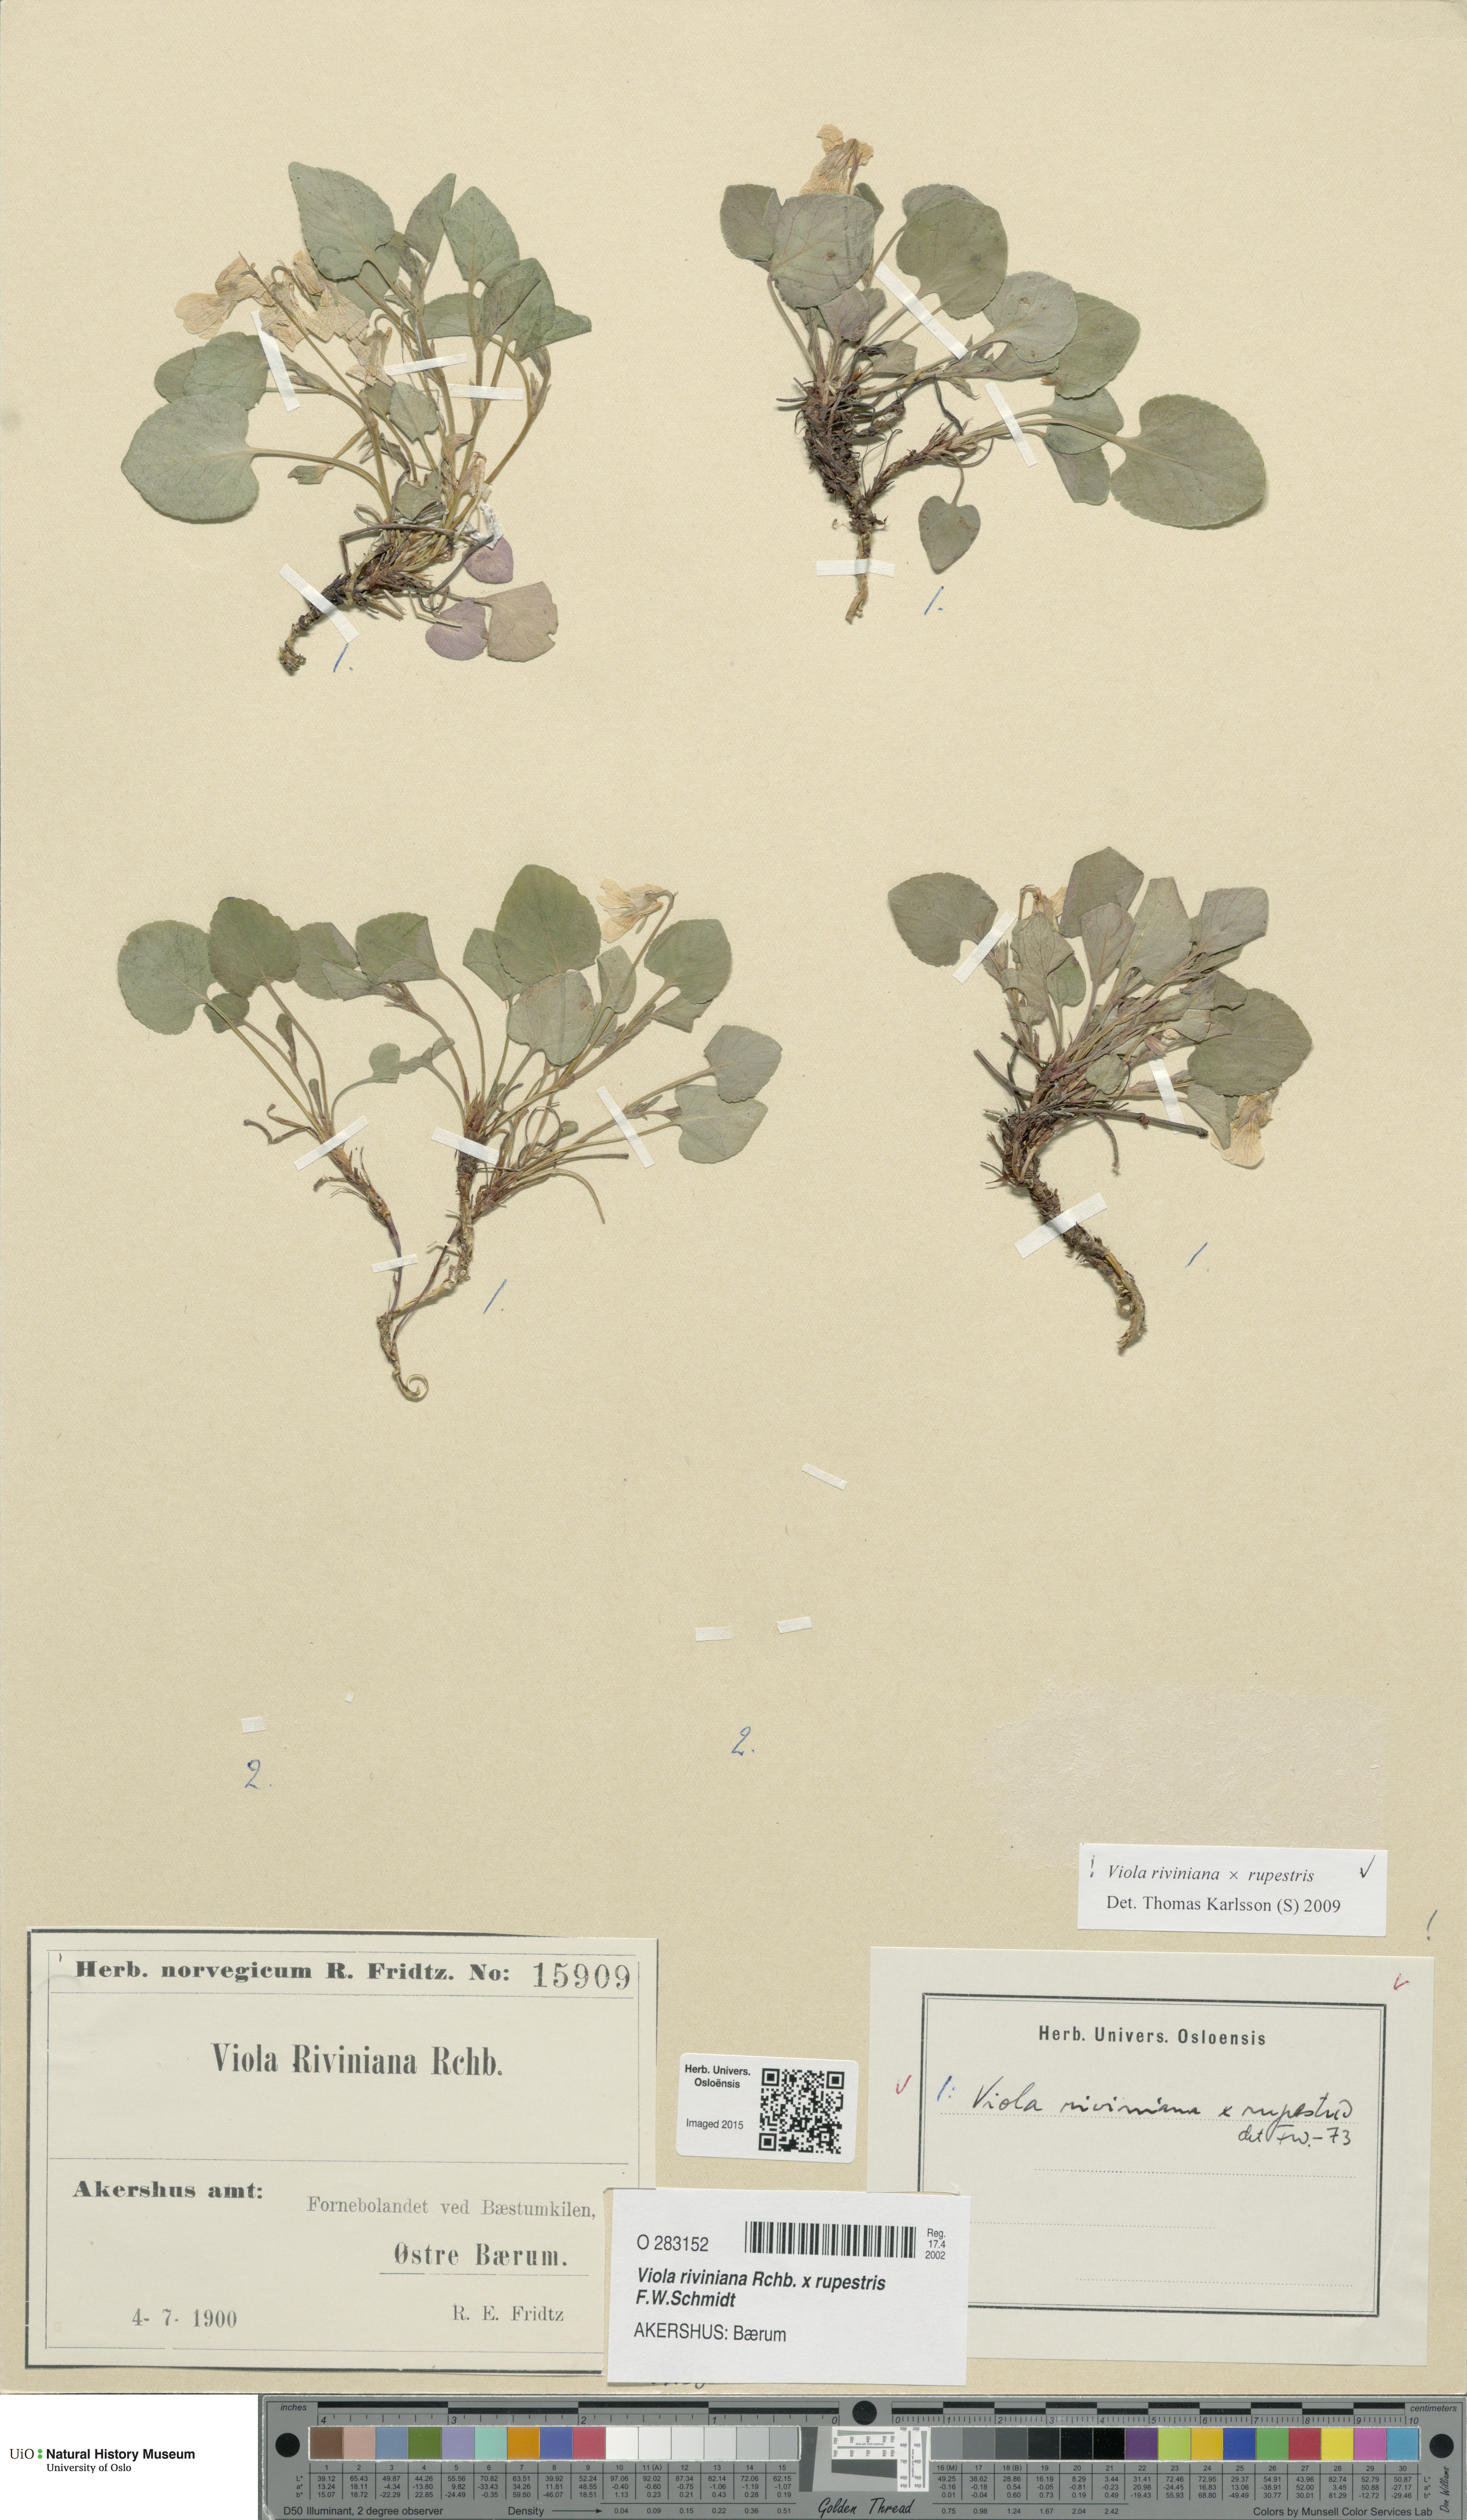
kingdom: Plantae
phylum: Tracheophyta
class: Magnoliopsida
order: Malpighiales
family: Violaceae
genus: Viola
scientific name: Viola
